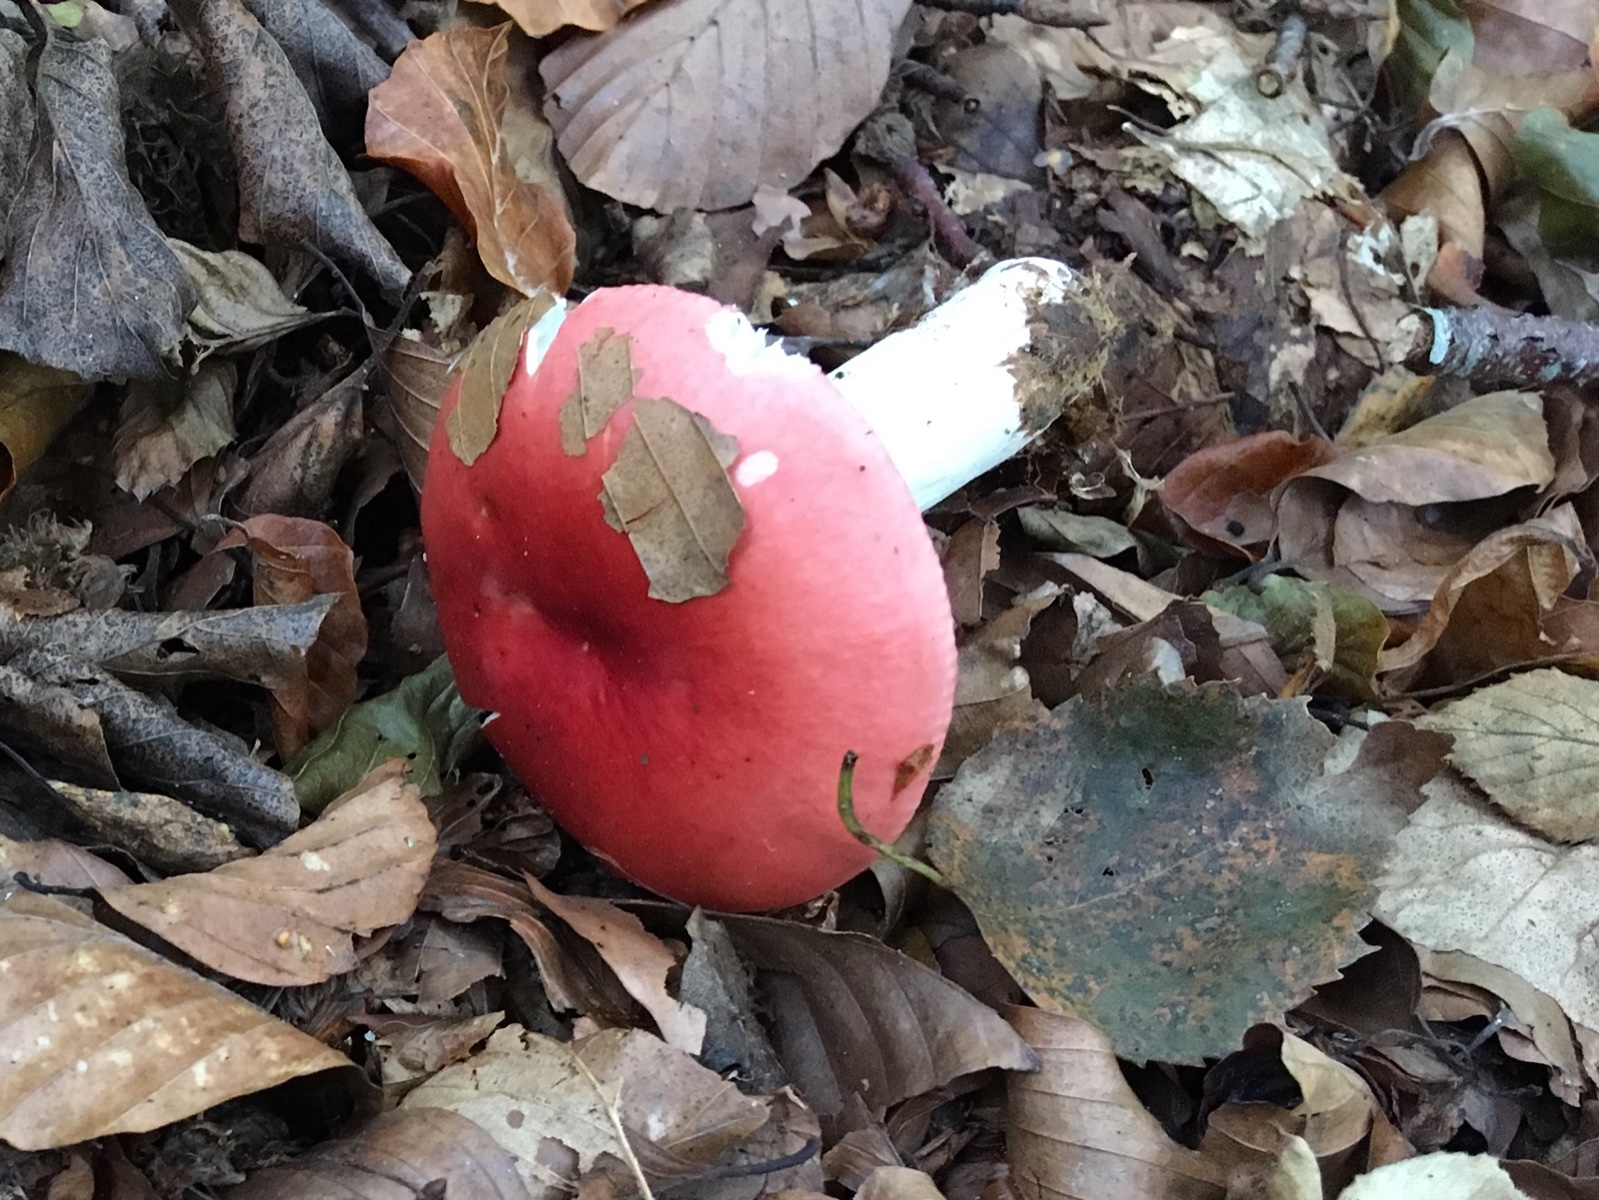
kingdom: Fungi
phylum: Basidiomycota
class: Agaricomycetes
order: Russulales
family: Russulaceae
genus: Russula
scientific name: Russula silvestris
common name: mellemstor gift-skørhat
